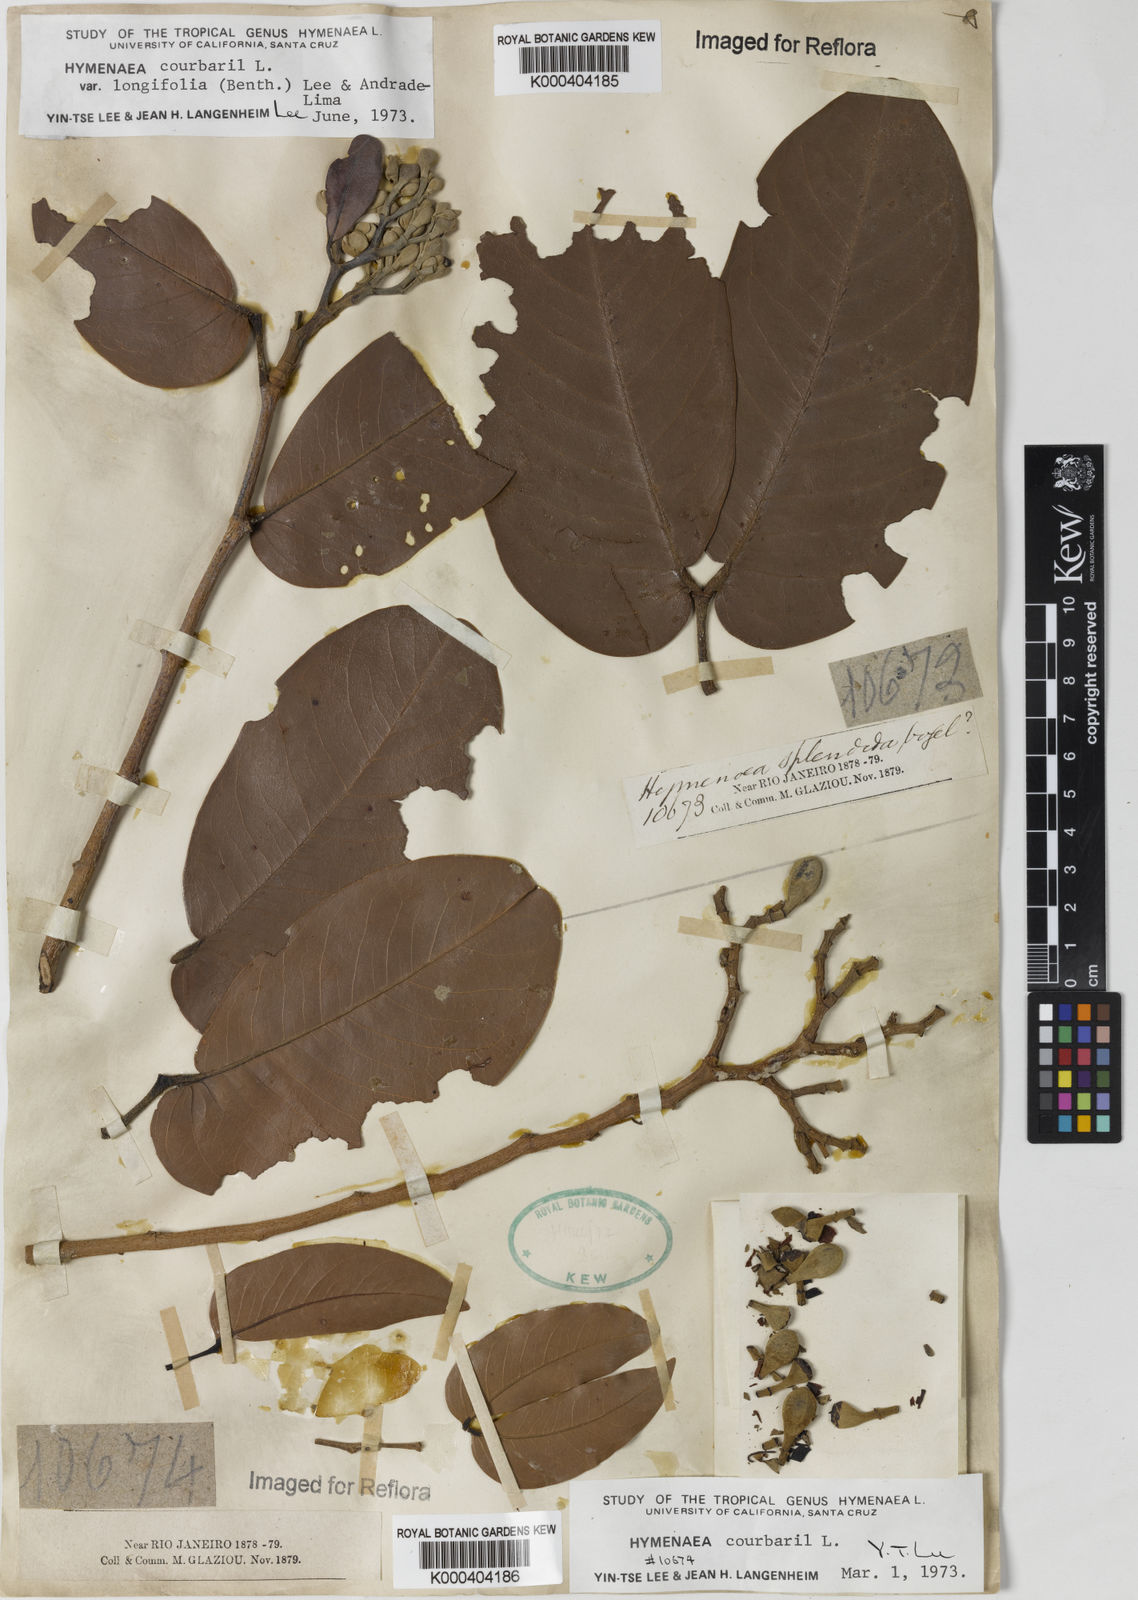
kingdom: Plantae
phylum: Tracheophyta
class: Magnoliopsida
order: Fabales
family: Fabaceae
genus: Hymenaea
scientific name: Hymenaea longifolia
